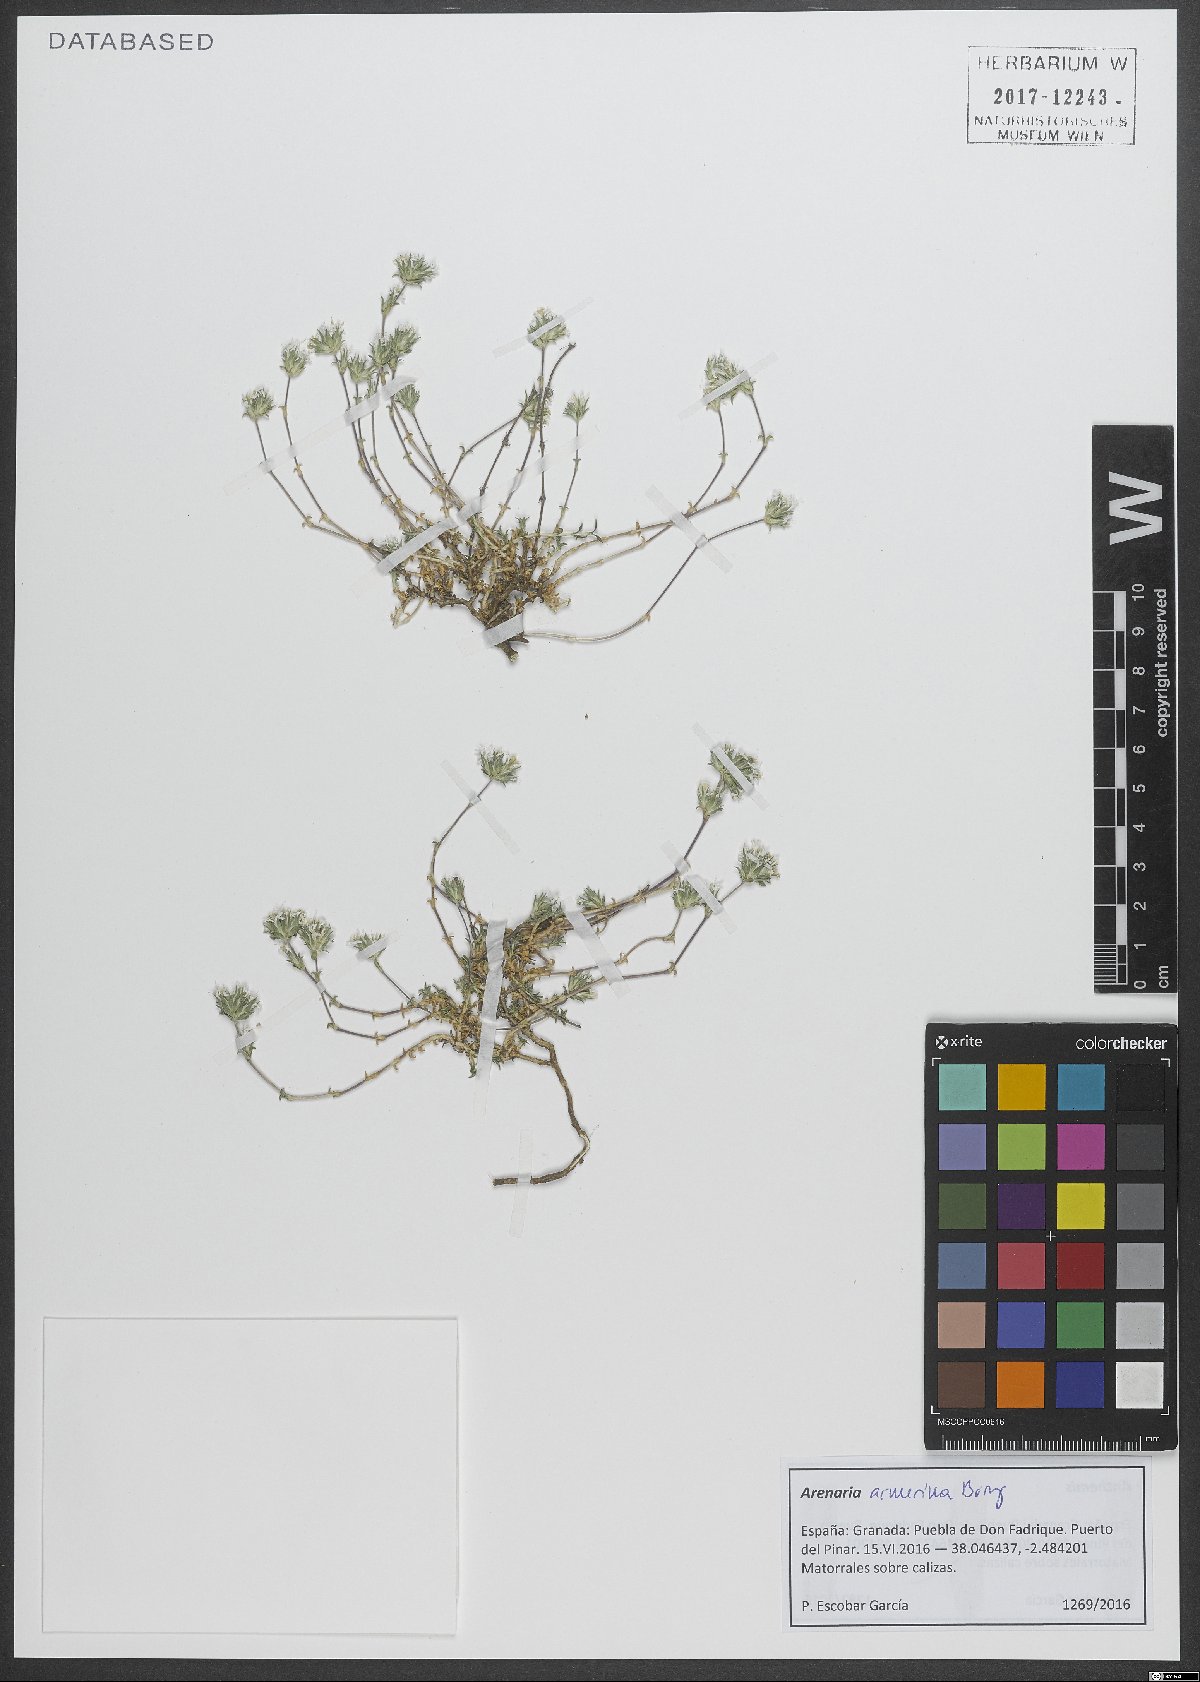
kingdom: Plantae
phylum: Tracheophyta
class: Magnoliopsida
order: Caryophyllales
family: Caryophyllaceae
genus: Arenaria
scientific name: Arenaria armerina
